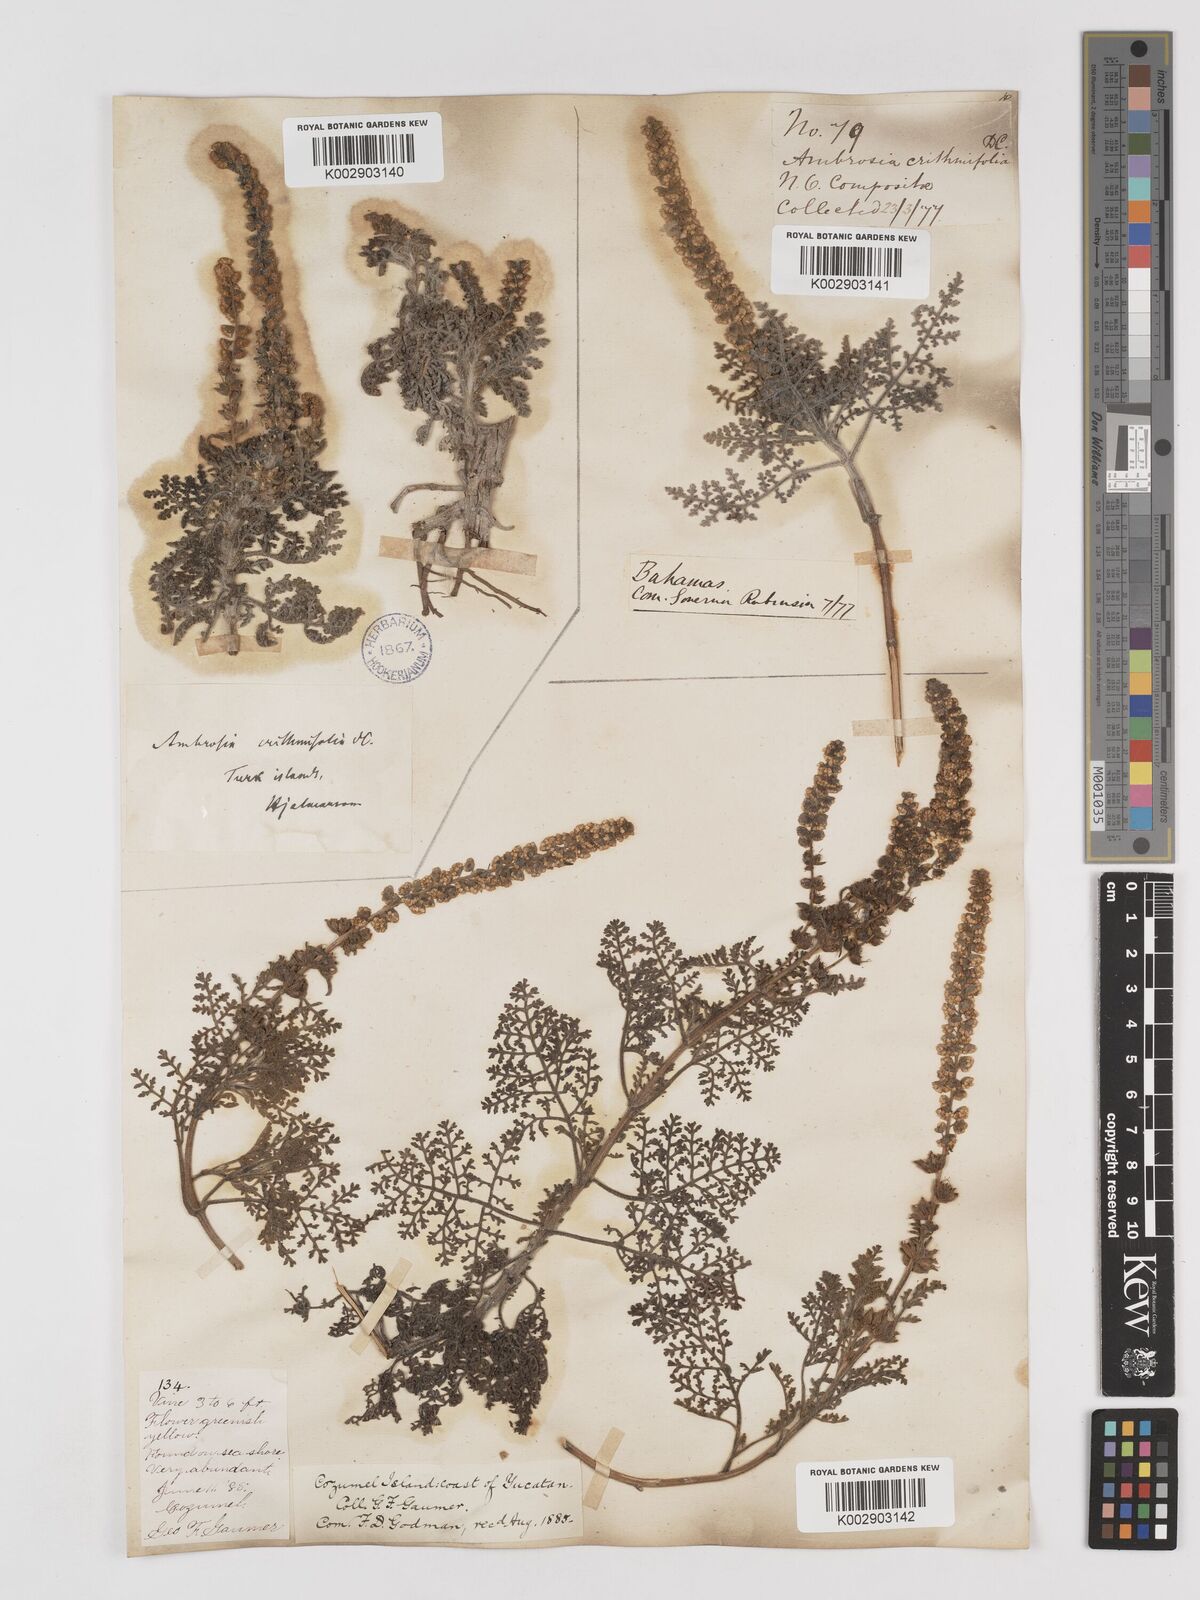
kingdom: Plantae
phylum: Tracheophyta
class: Magnoliopsida
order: Asterales
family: Asteraceae
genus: Ambrosia
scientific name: Ambrosia hispida
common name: Coastal ragweed
